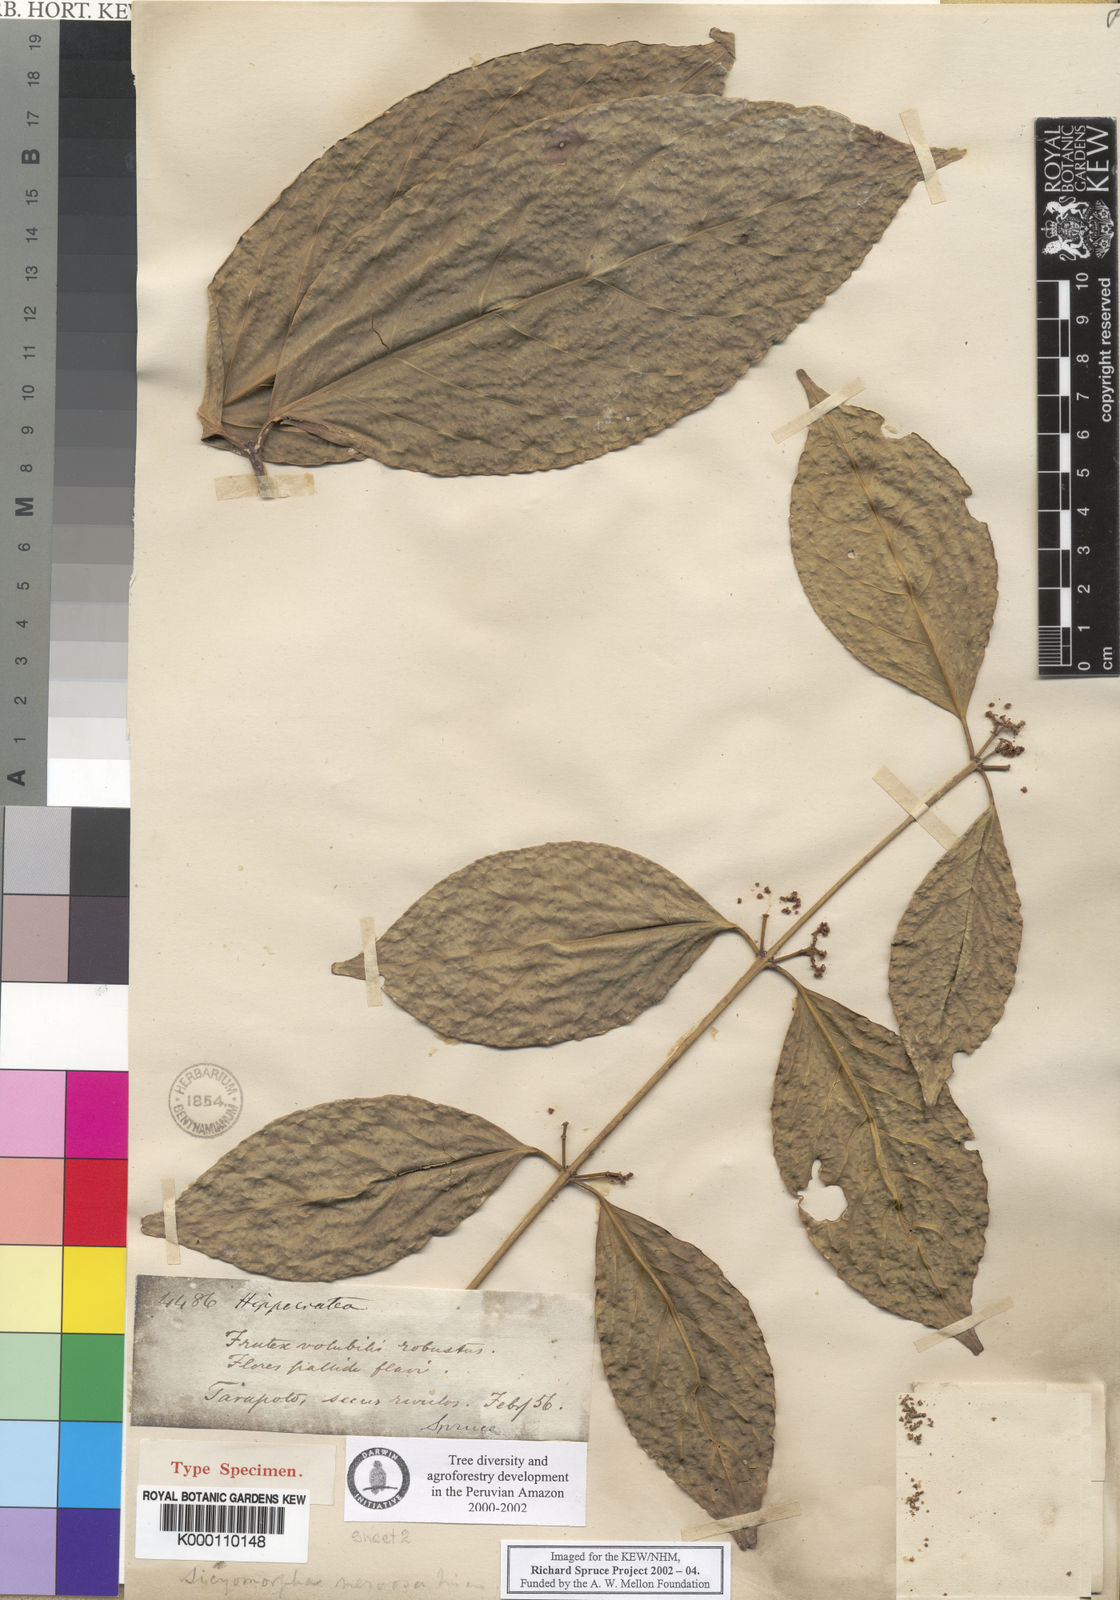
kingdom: Plantae
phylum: Tracheophyta
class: Magnoliopsida
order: Celastrales
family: Celastraceae
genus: Pristimera
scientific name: Pristimera nervosa
